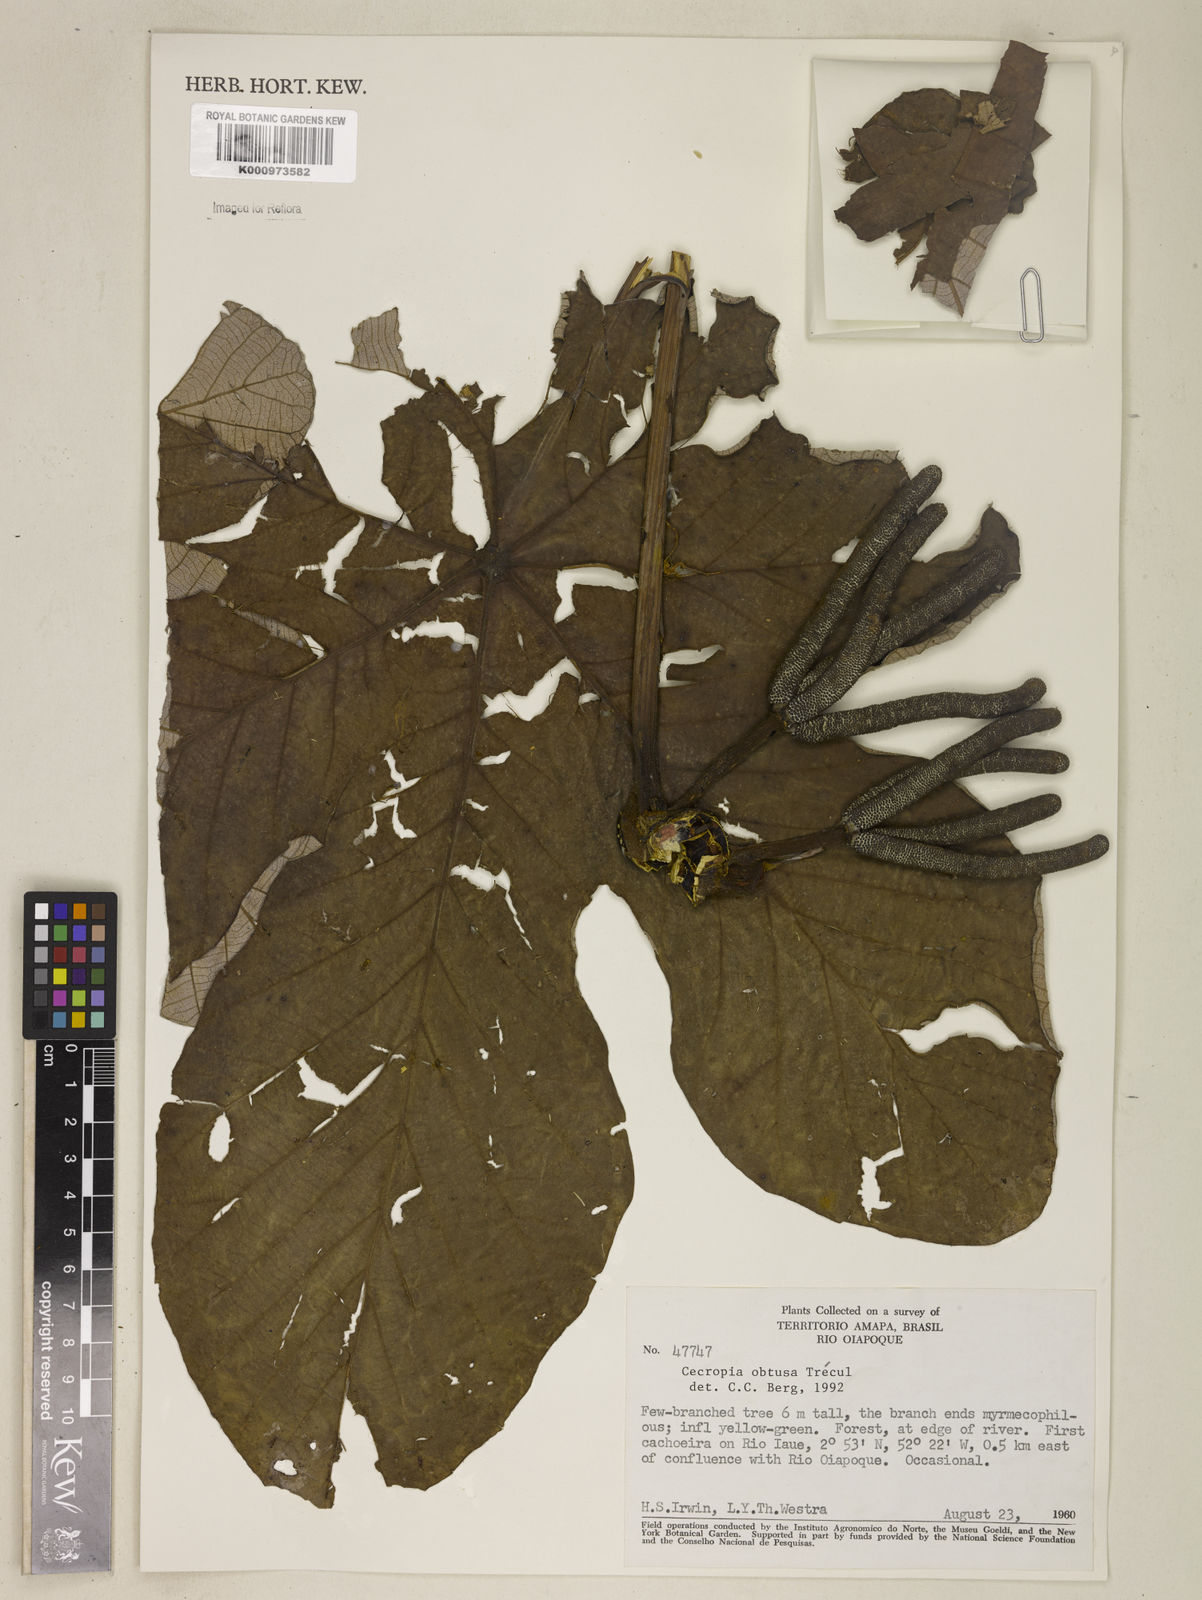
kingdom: Plantae
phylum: Tracheophyta
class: Magnoliopsida
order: Rosales
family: Urticaceae
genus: Cecropia
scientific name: Cecropia
